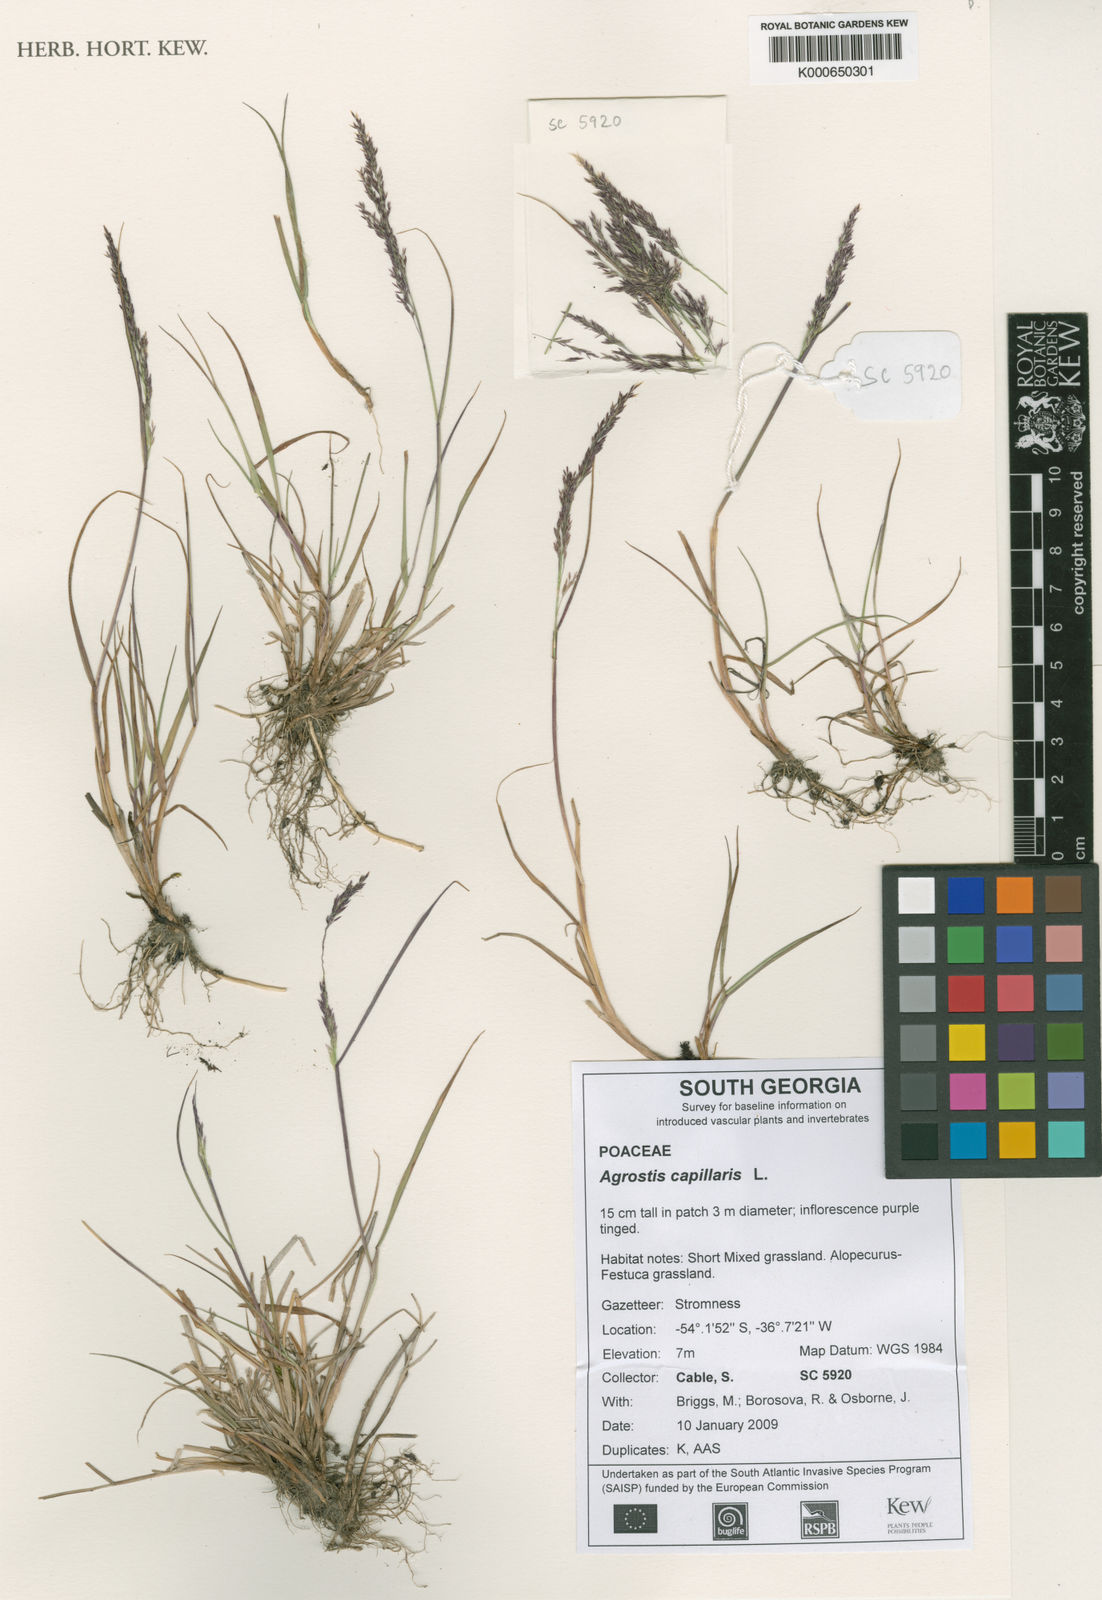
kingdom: Plantae
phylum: Tracheophyta
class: Liliopsida
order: Poales
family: Poaceae
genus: Agrostis
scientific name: Agrostis capillaris
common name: Colonial bentgrass
